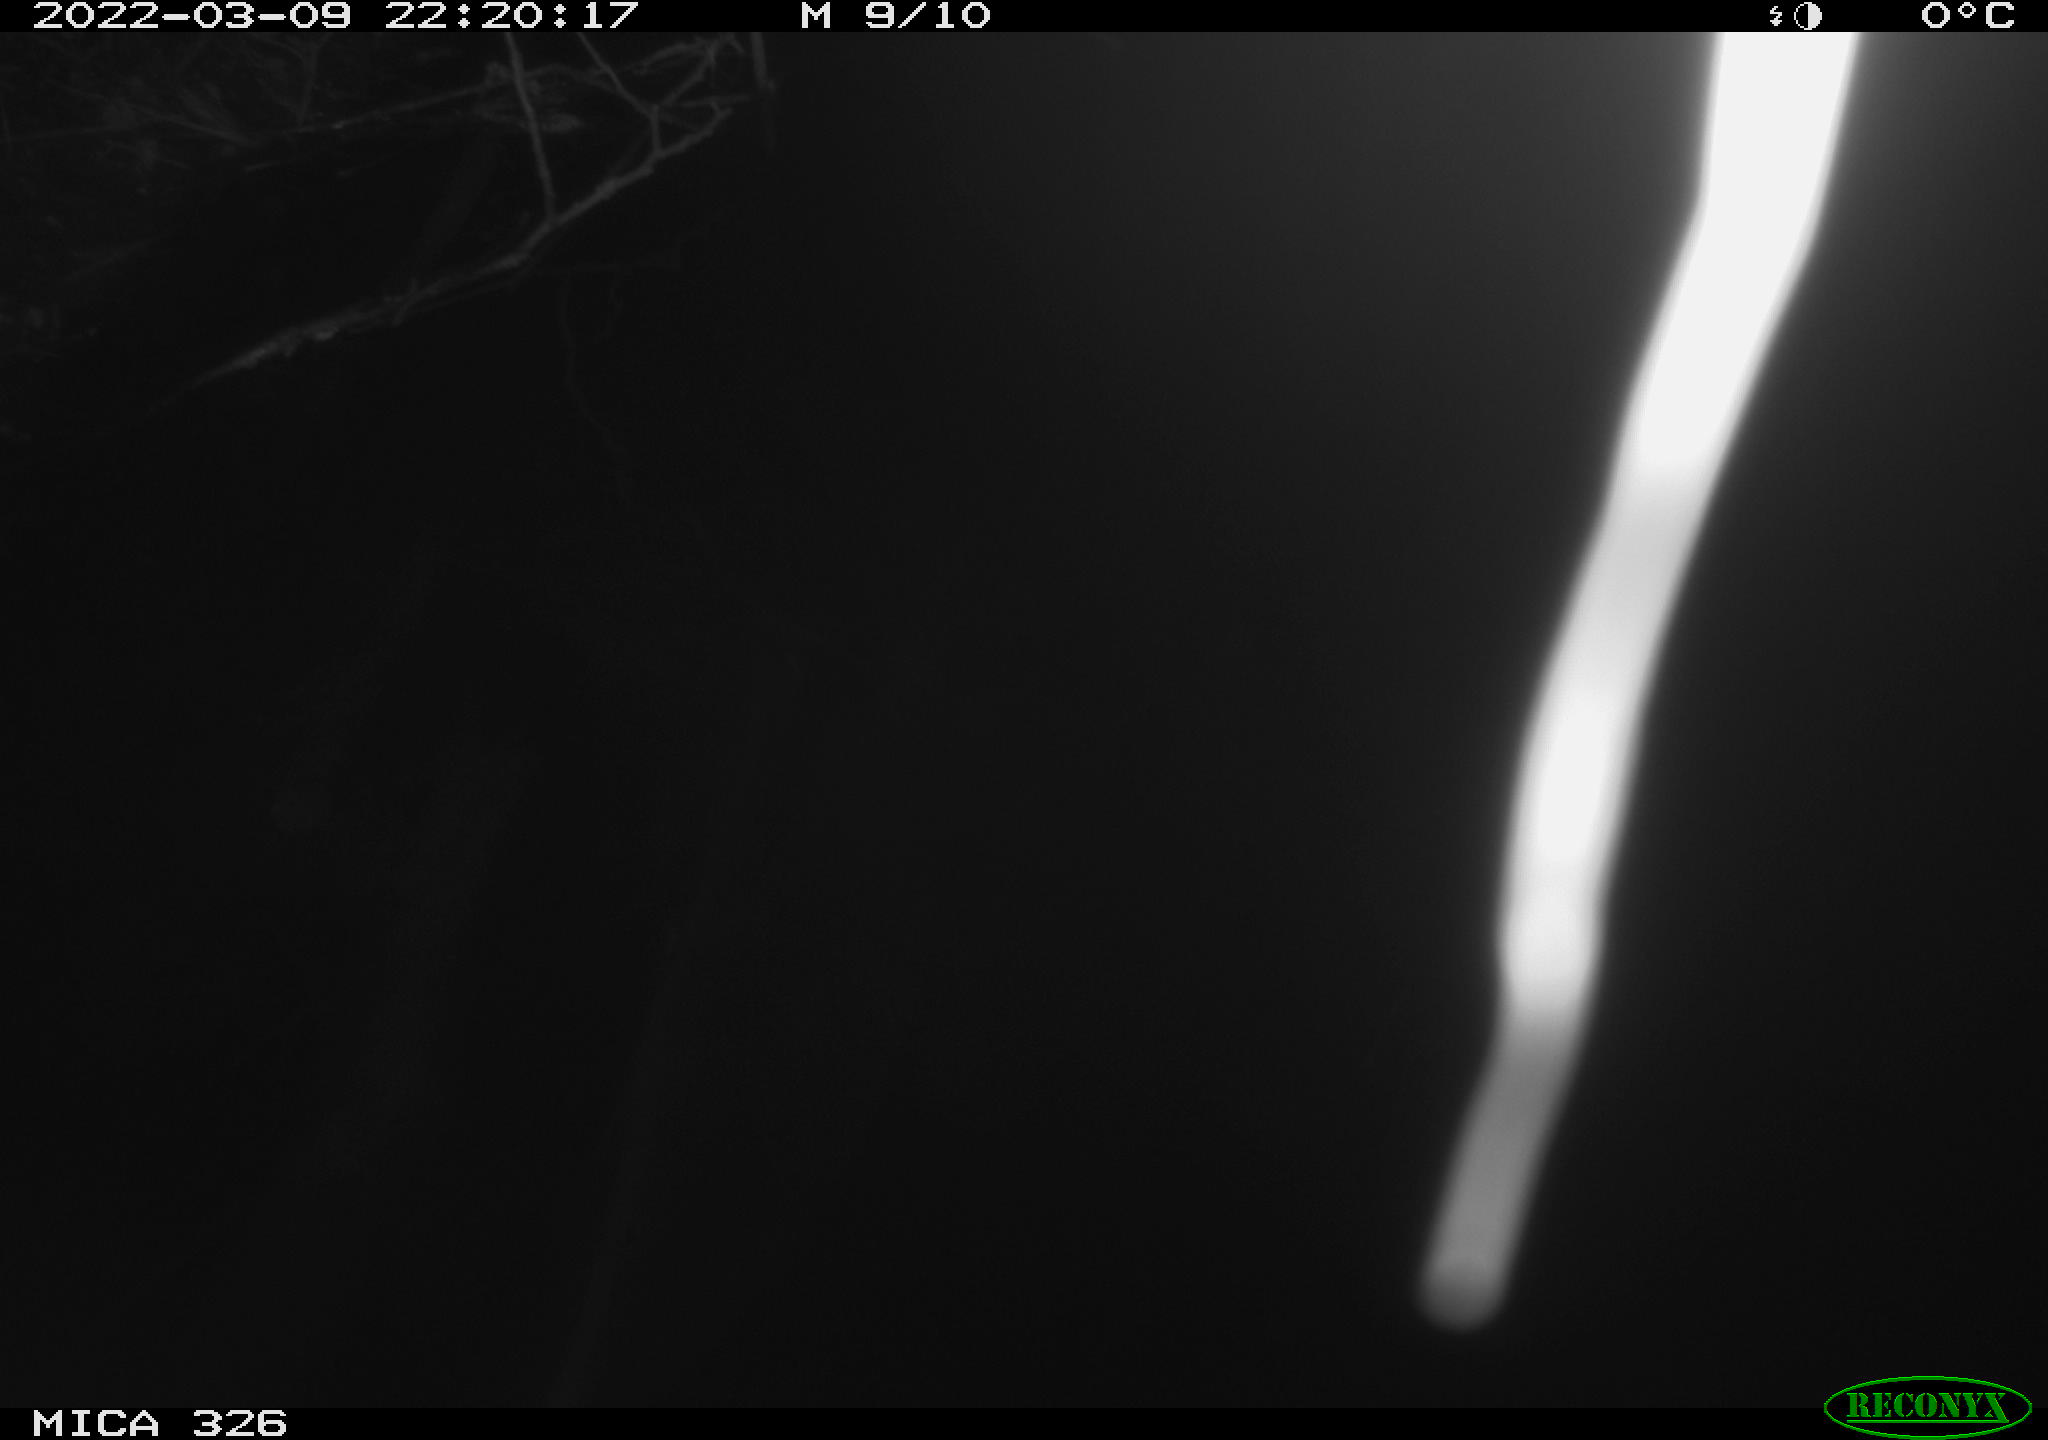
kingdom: Animalia
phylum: Chordata
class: Mammalia
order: Rodentia
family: Muridae
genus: Rattus
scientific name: Rattus norvegicus
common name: Brown rat
